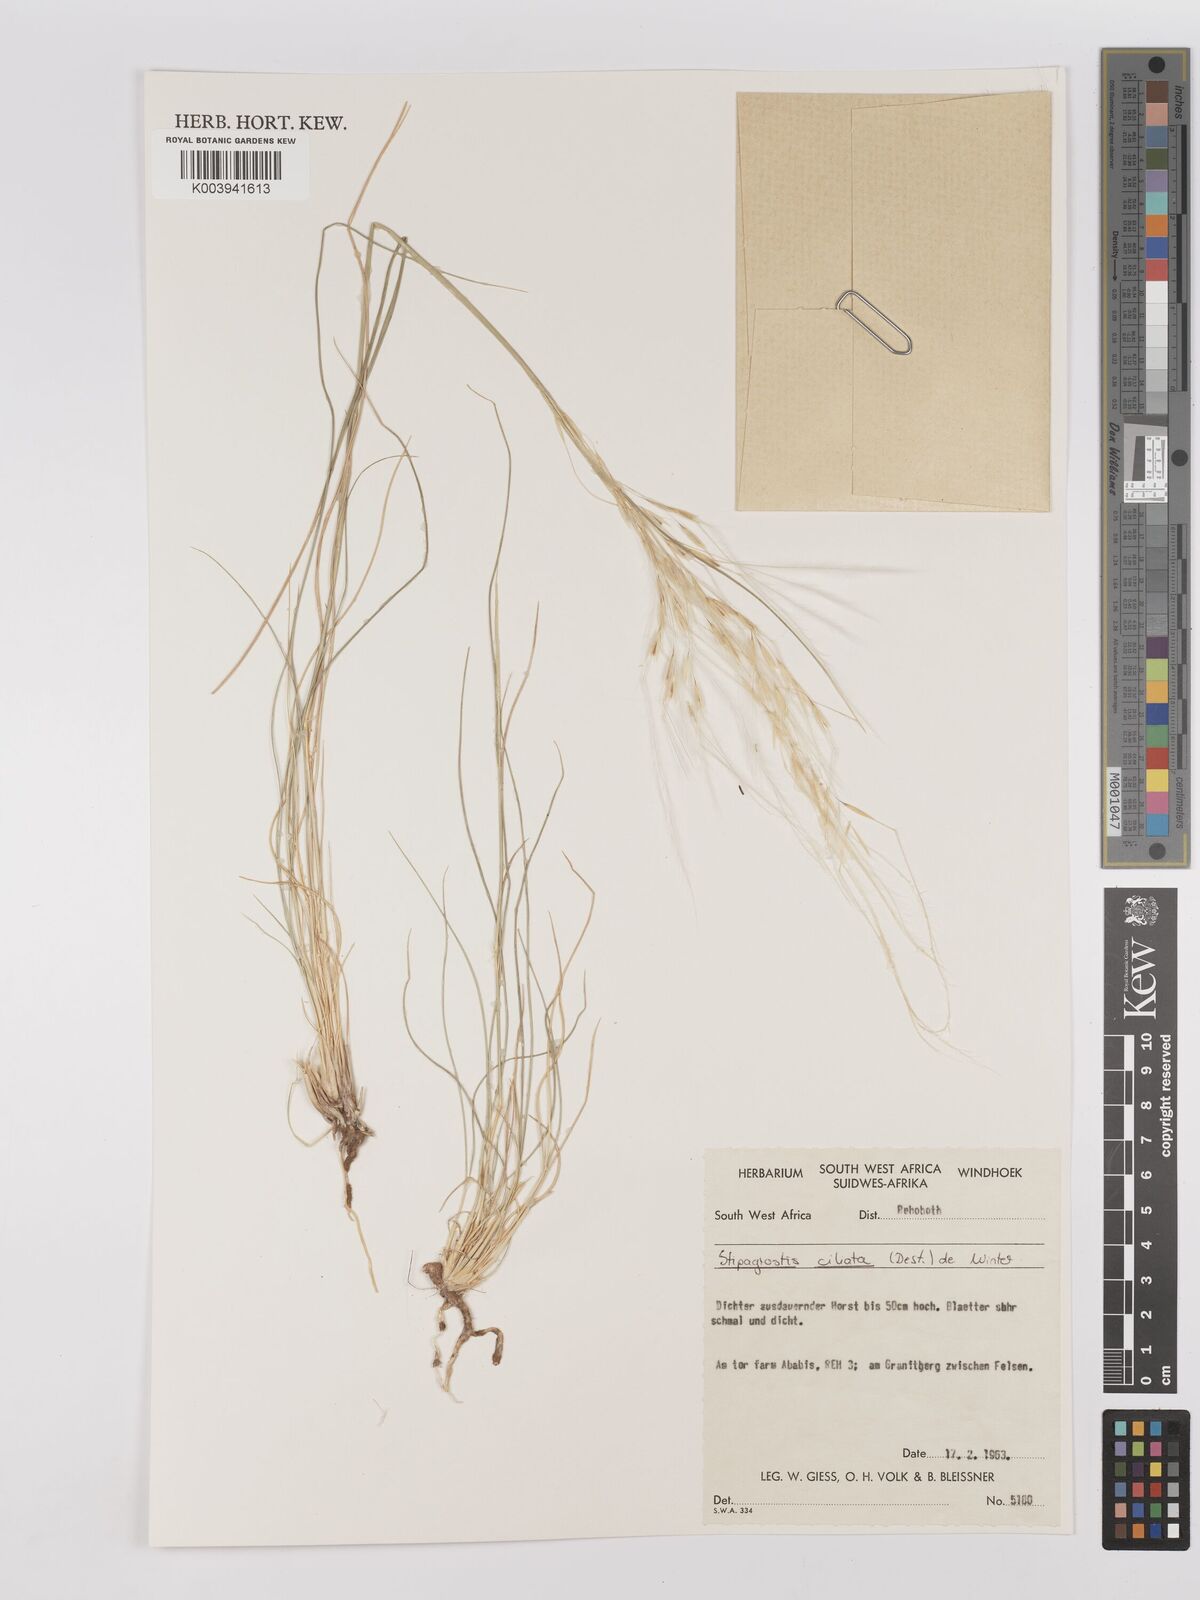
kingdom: Plantae
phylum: Tracheophyta
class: Liliopsida
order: Poales
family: Poaceae
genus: Stipagrostis
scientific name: Stipagrostis ciliata
